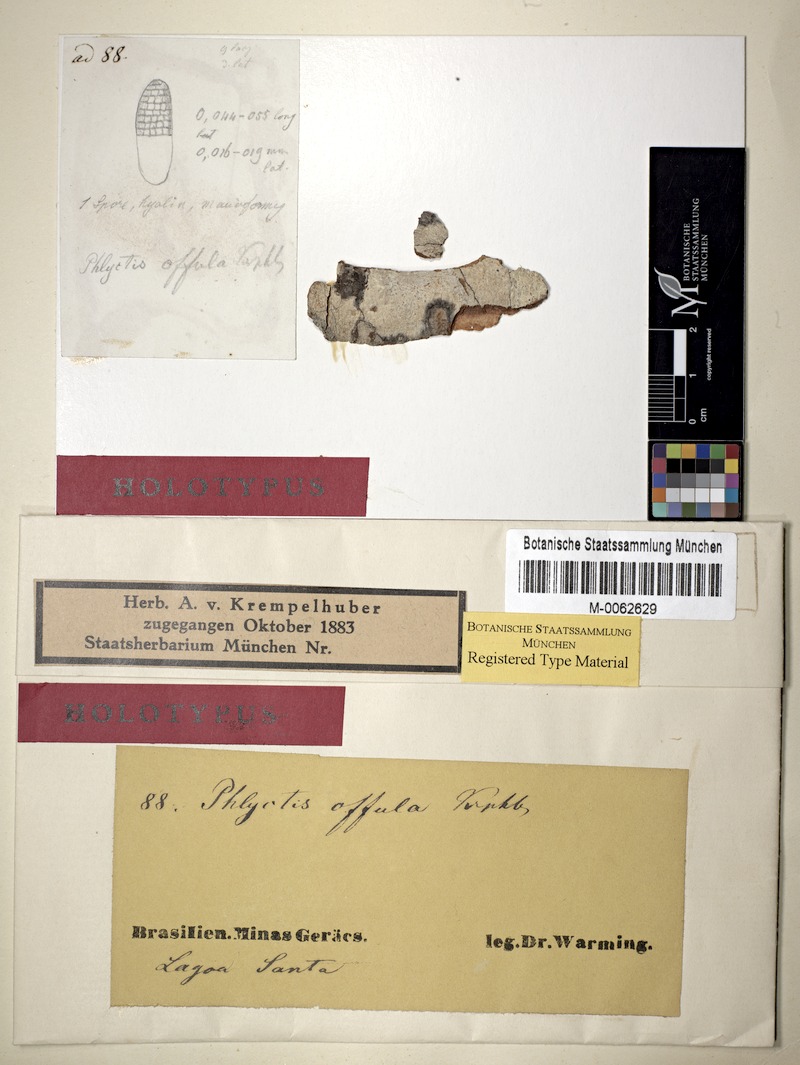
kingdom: Fungi
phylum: Ascomycota
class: Lecanoromycetes
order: Ostropales
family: Phlyctidaceae
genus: Phlyctis
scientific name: Phlyctis offula
